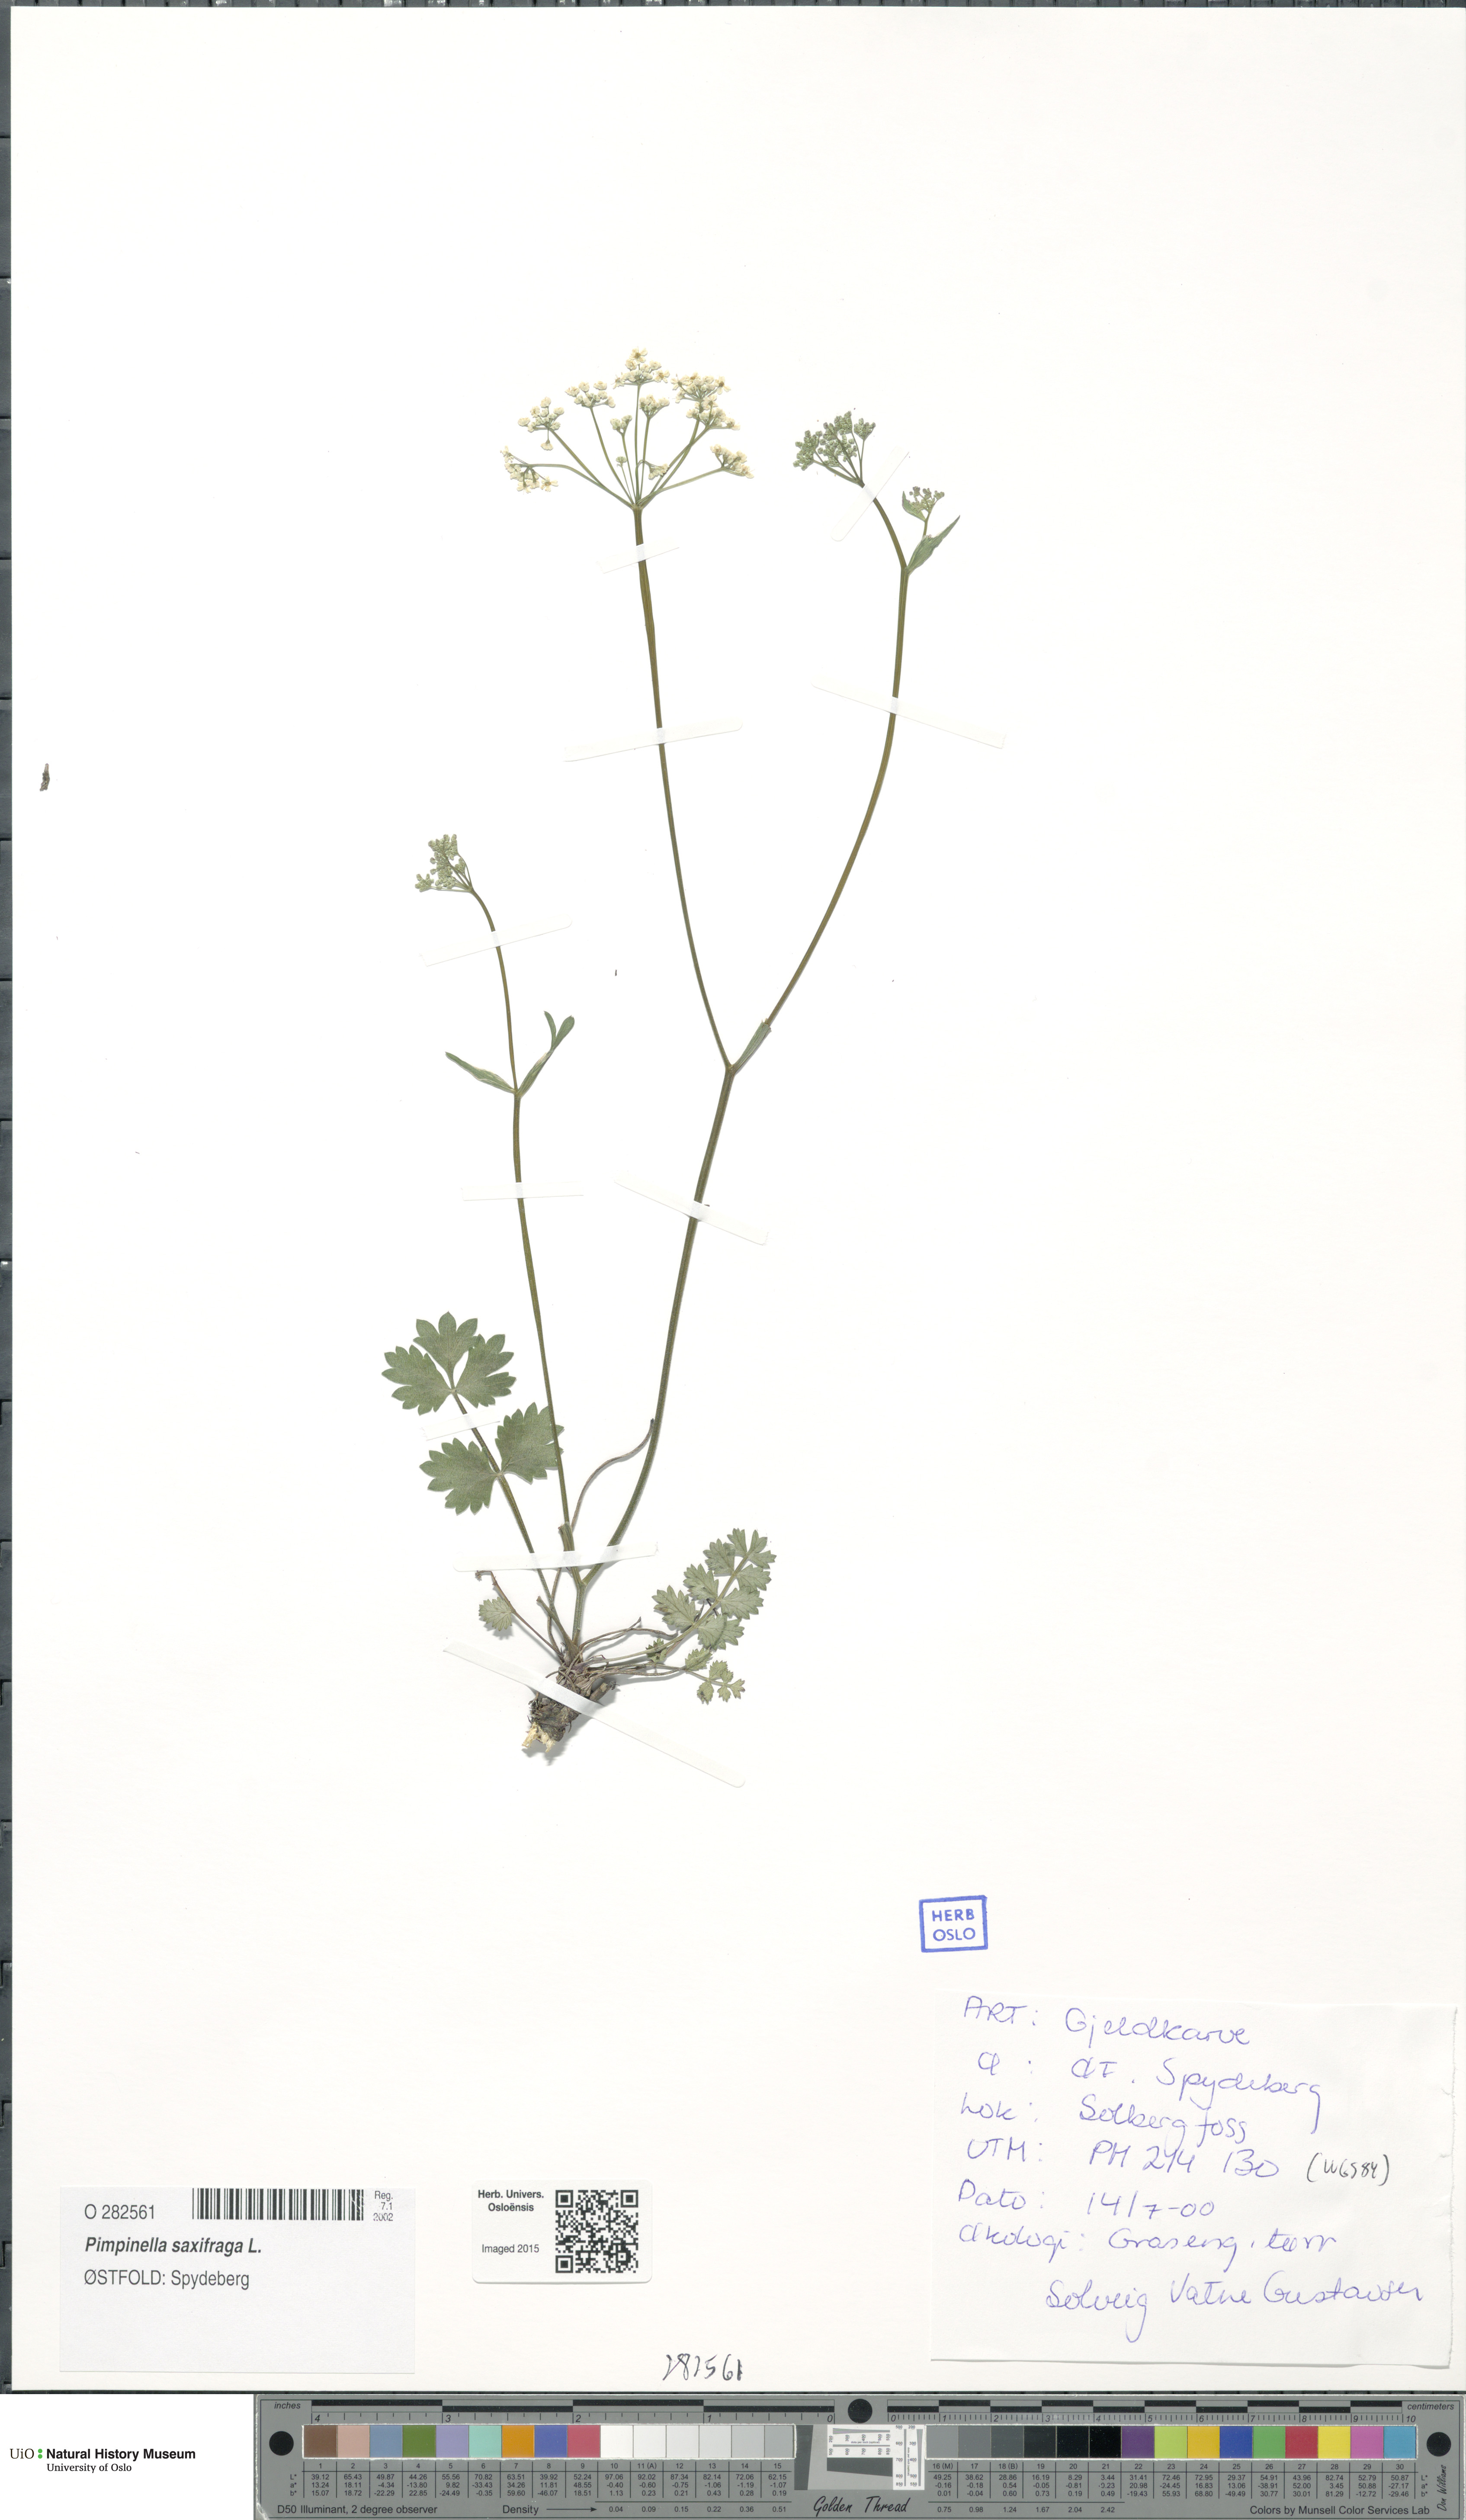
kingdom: Plantae
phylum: Tracheophyta
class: Magnoliopsida
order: Apiales
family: Apiaceae
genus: Pimpinella
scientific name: Pimpinella saxifraga
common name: Burnet-saxifrage
